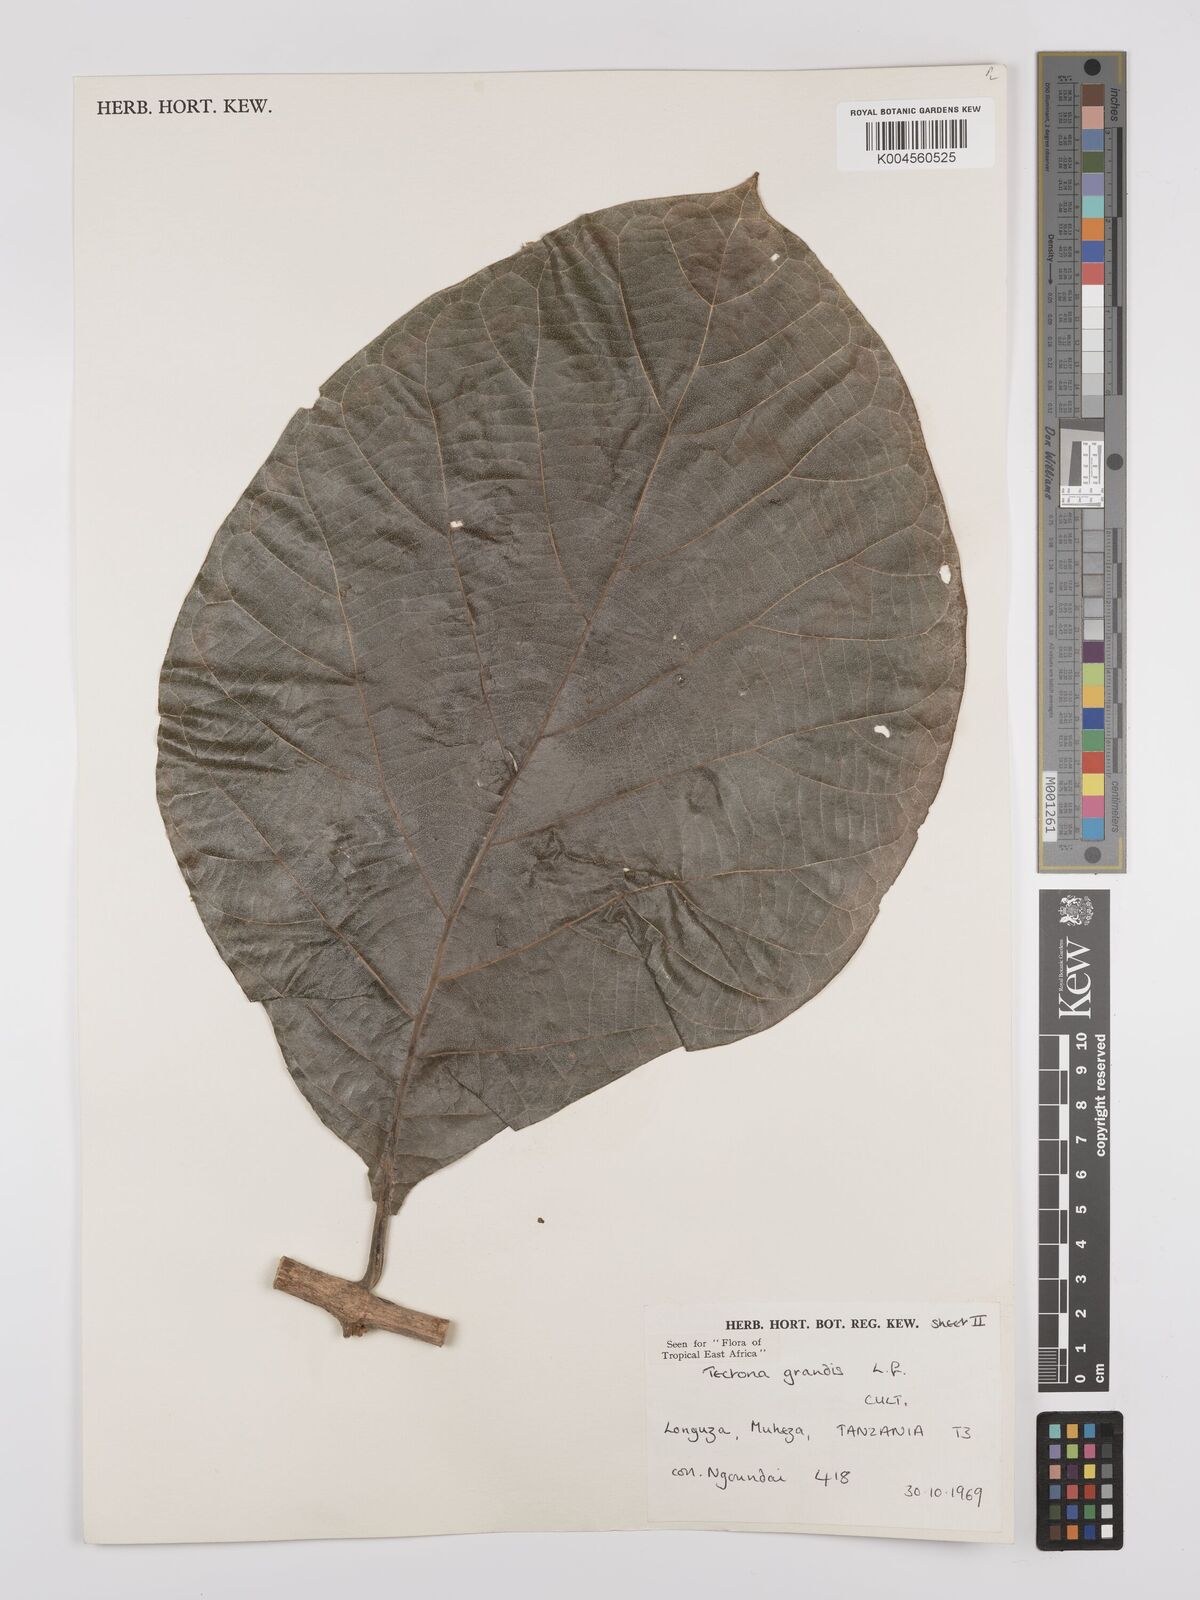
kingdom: Plantae
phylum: Tracheophyta
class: Magnoliopsida
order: Lamiales
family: Lamiaceae
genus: Tectona
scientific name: Tectona grandis
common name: Teak
